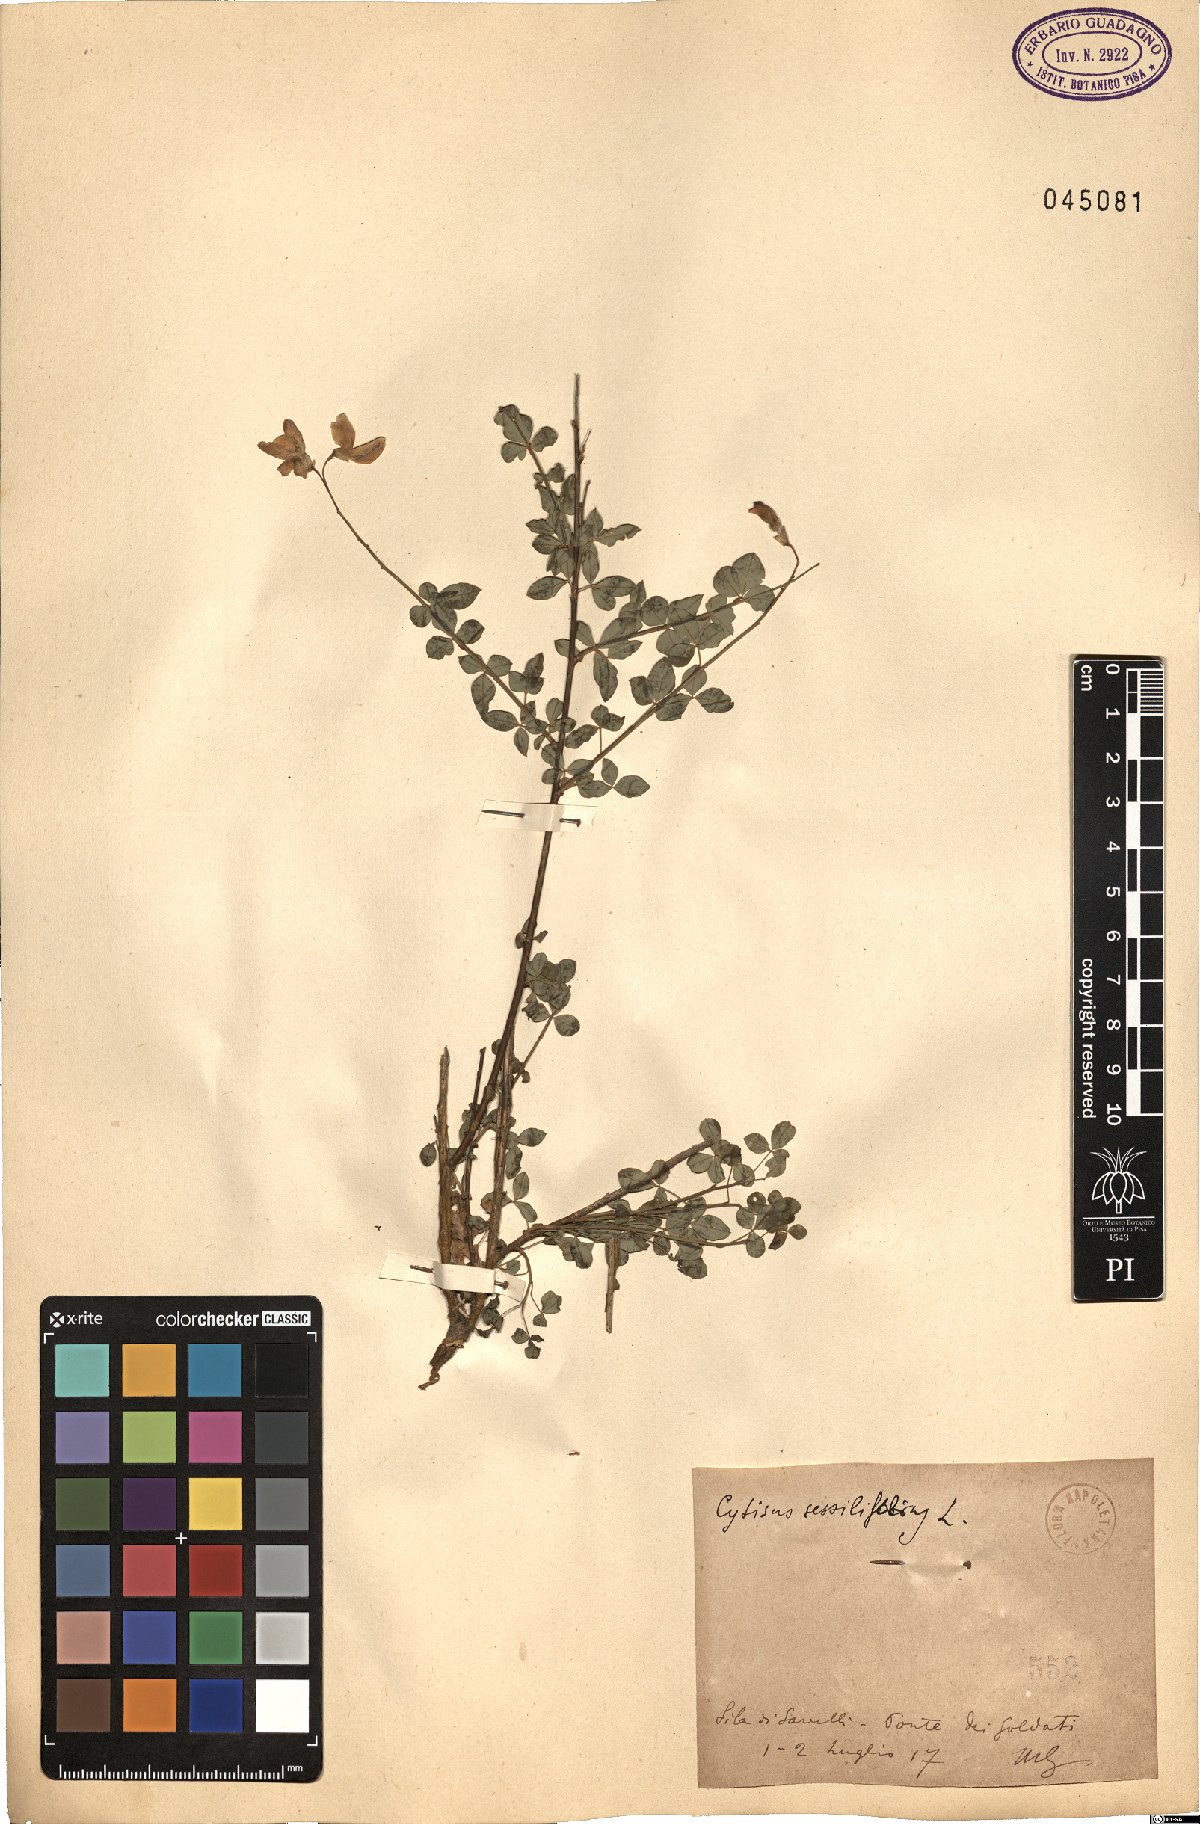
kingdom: Plantae
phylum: Tracheophyta
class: Magnoliopsida
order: Fabales
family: Fabaceae
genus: Cytisophyllum
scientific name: Cytisophyllum sessilifolium
